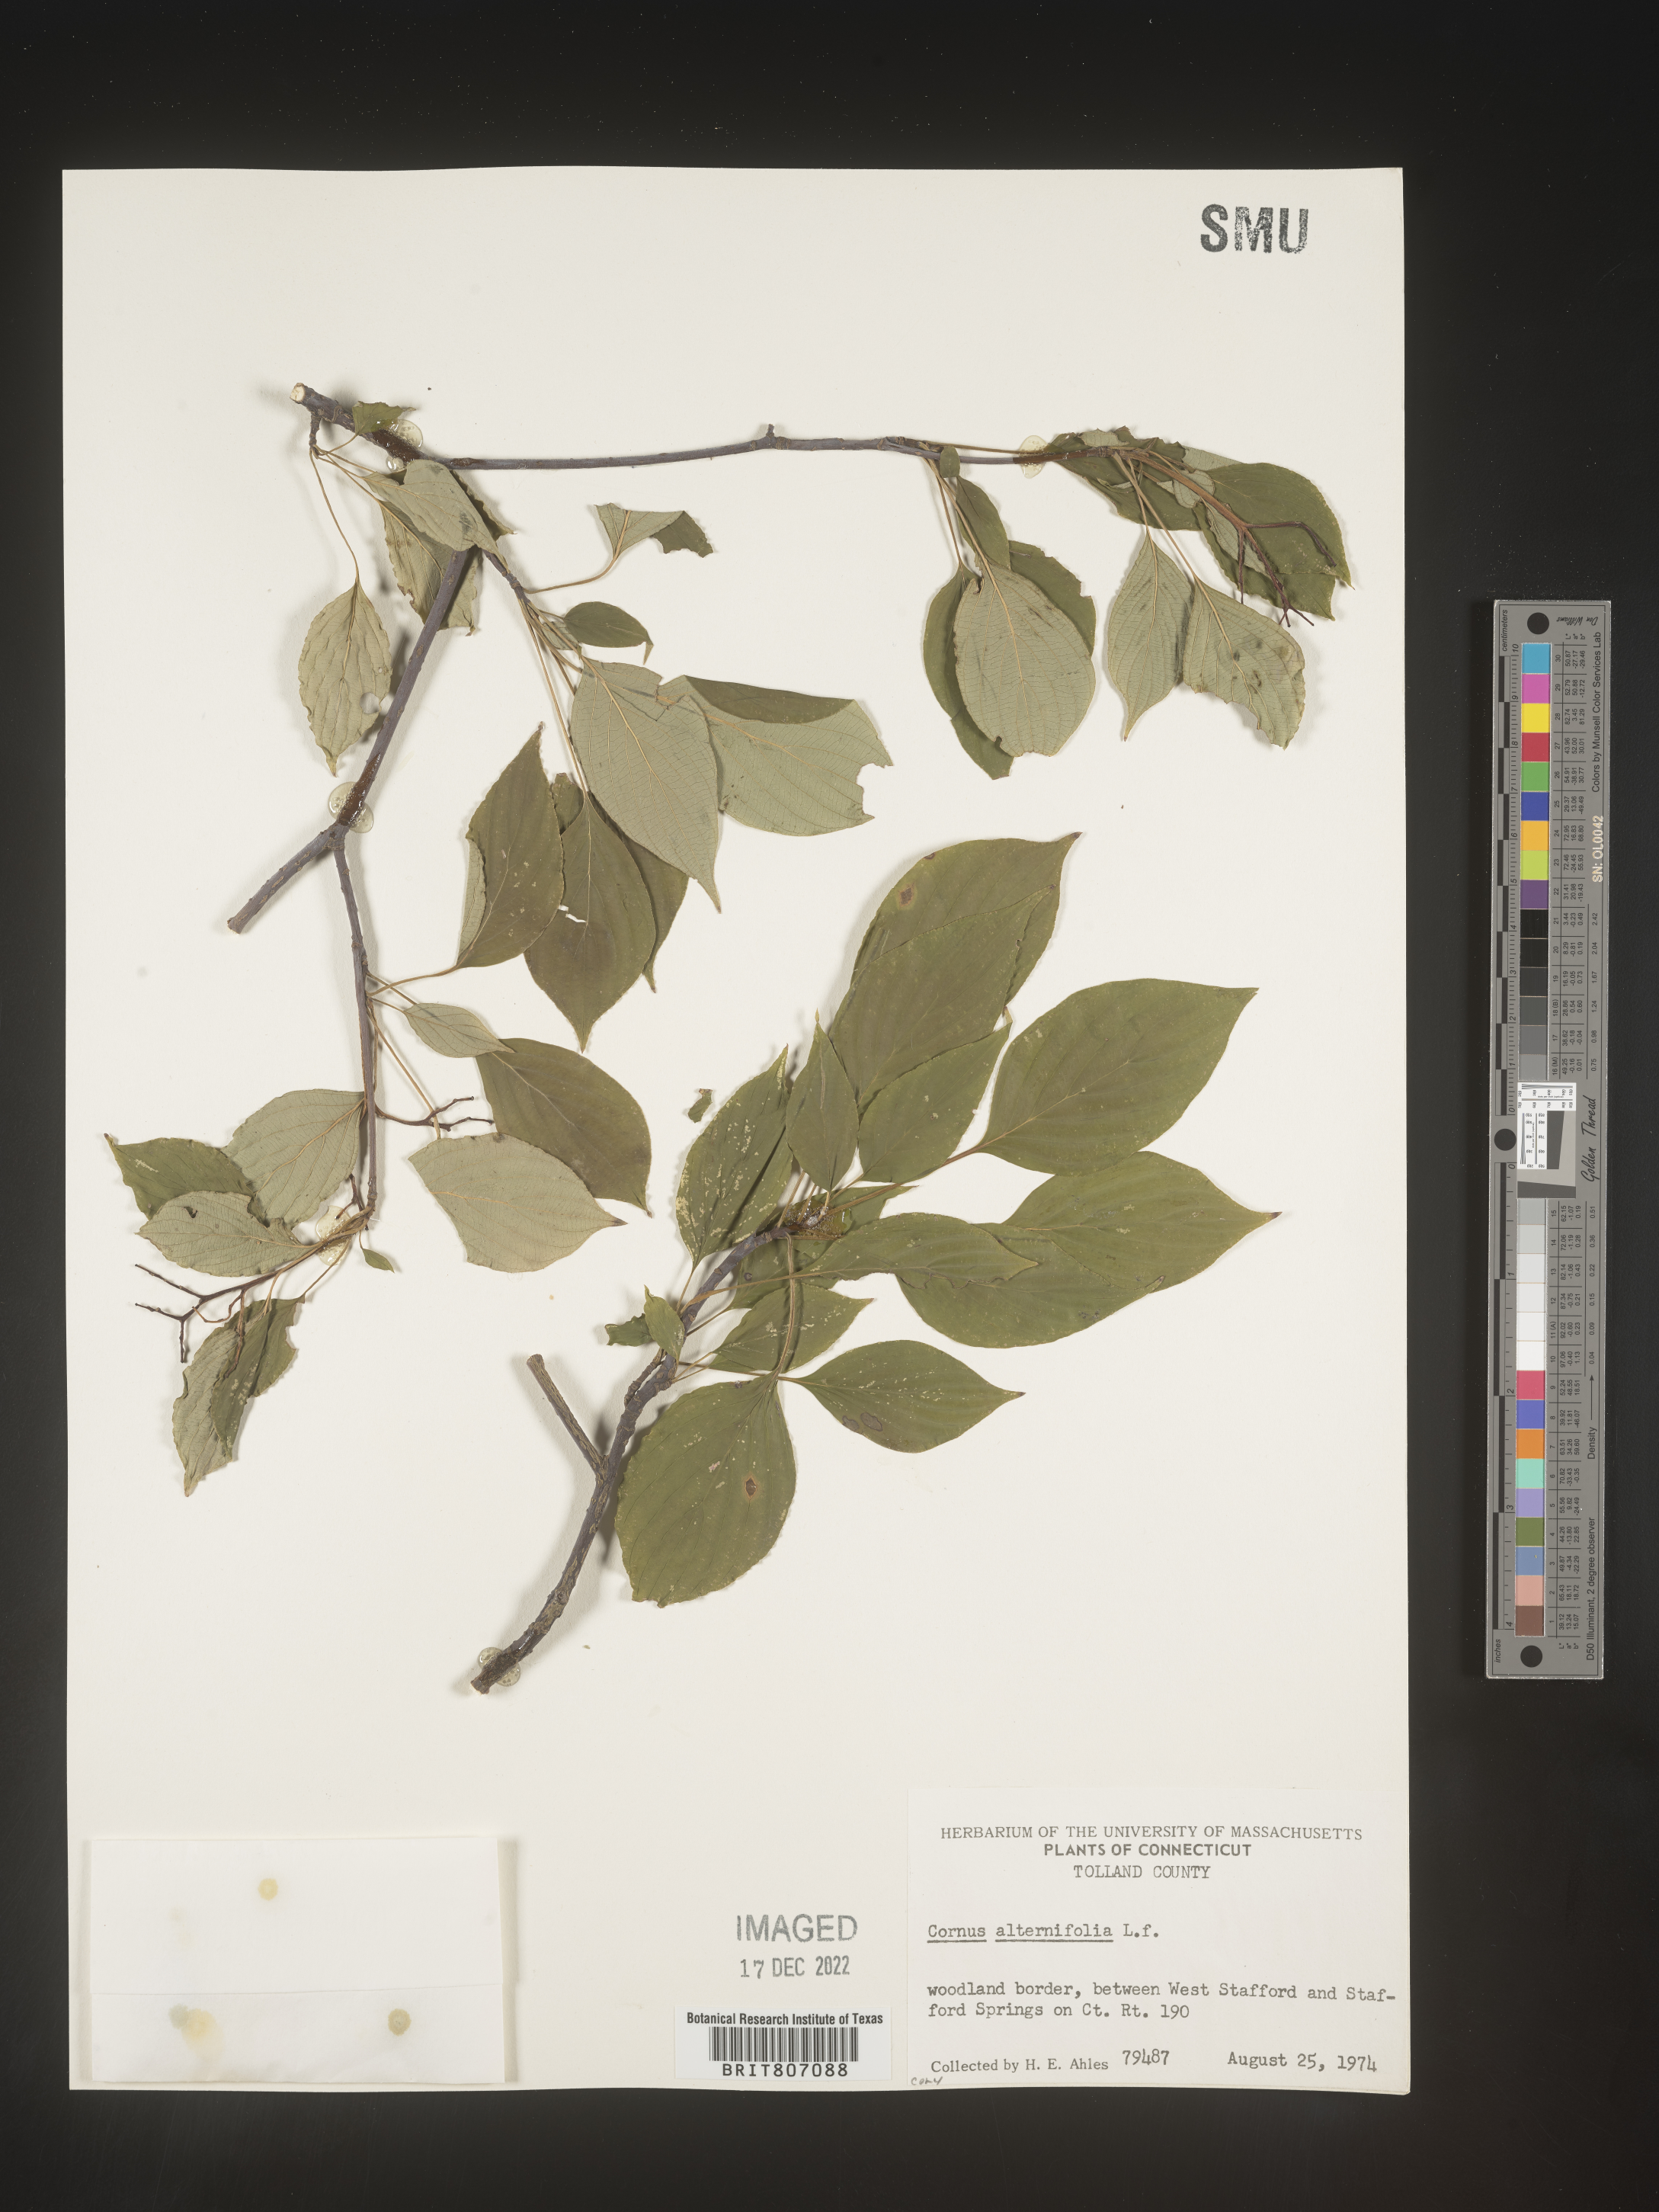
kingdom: Plantae
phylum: Tracheophyta
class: Magnoliopsida
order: Cornales
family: Cornaceae
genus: Cornus
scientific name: Cornus alternifolia
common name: Pagoda dogwood
